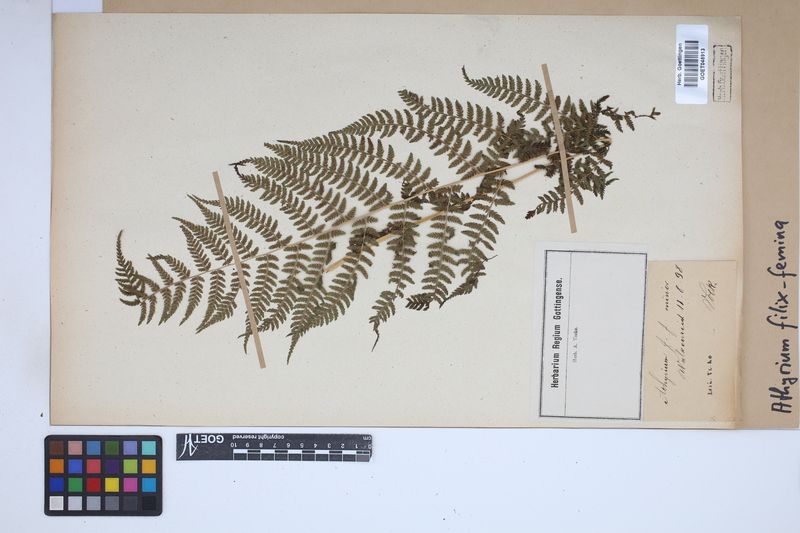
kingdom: Plantae
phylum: Tracheophyta
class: Polypodiopsida
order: Polypodiales
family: Athyriaceae
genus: Athyrium
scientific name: Athyrium filix-femina
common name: Lady fern
